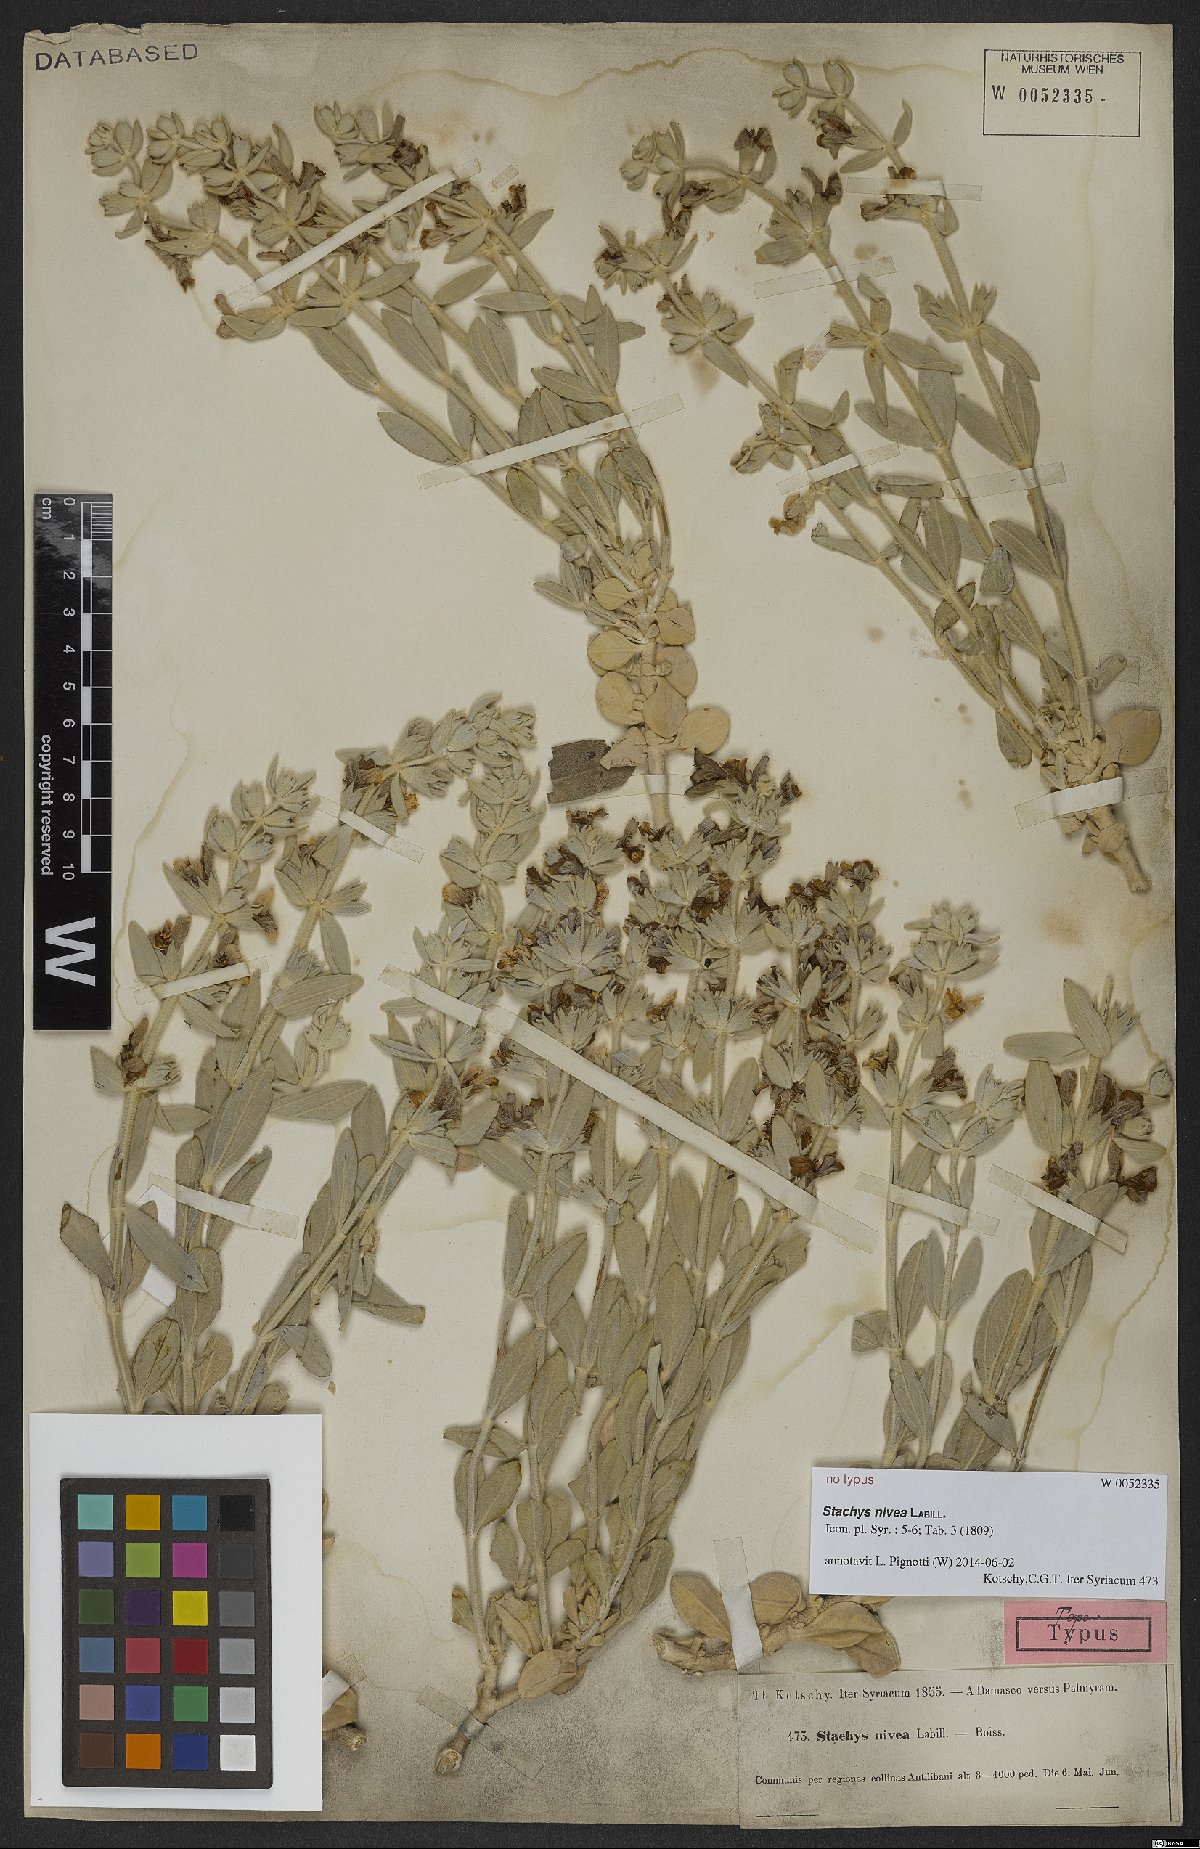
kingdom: Plantae
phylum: Tracheophyta
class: Magnoliopsida
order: Lamiales
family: Lamiaceae
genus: Stachys
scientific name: Stachys nivea
